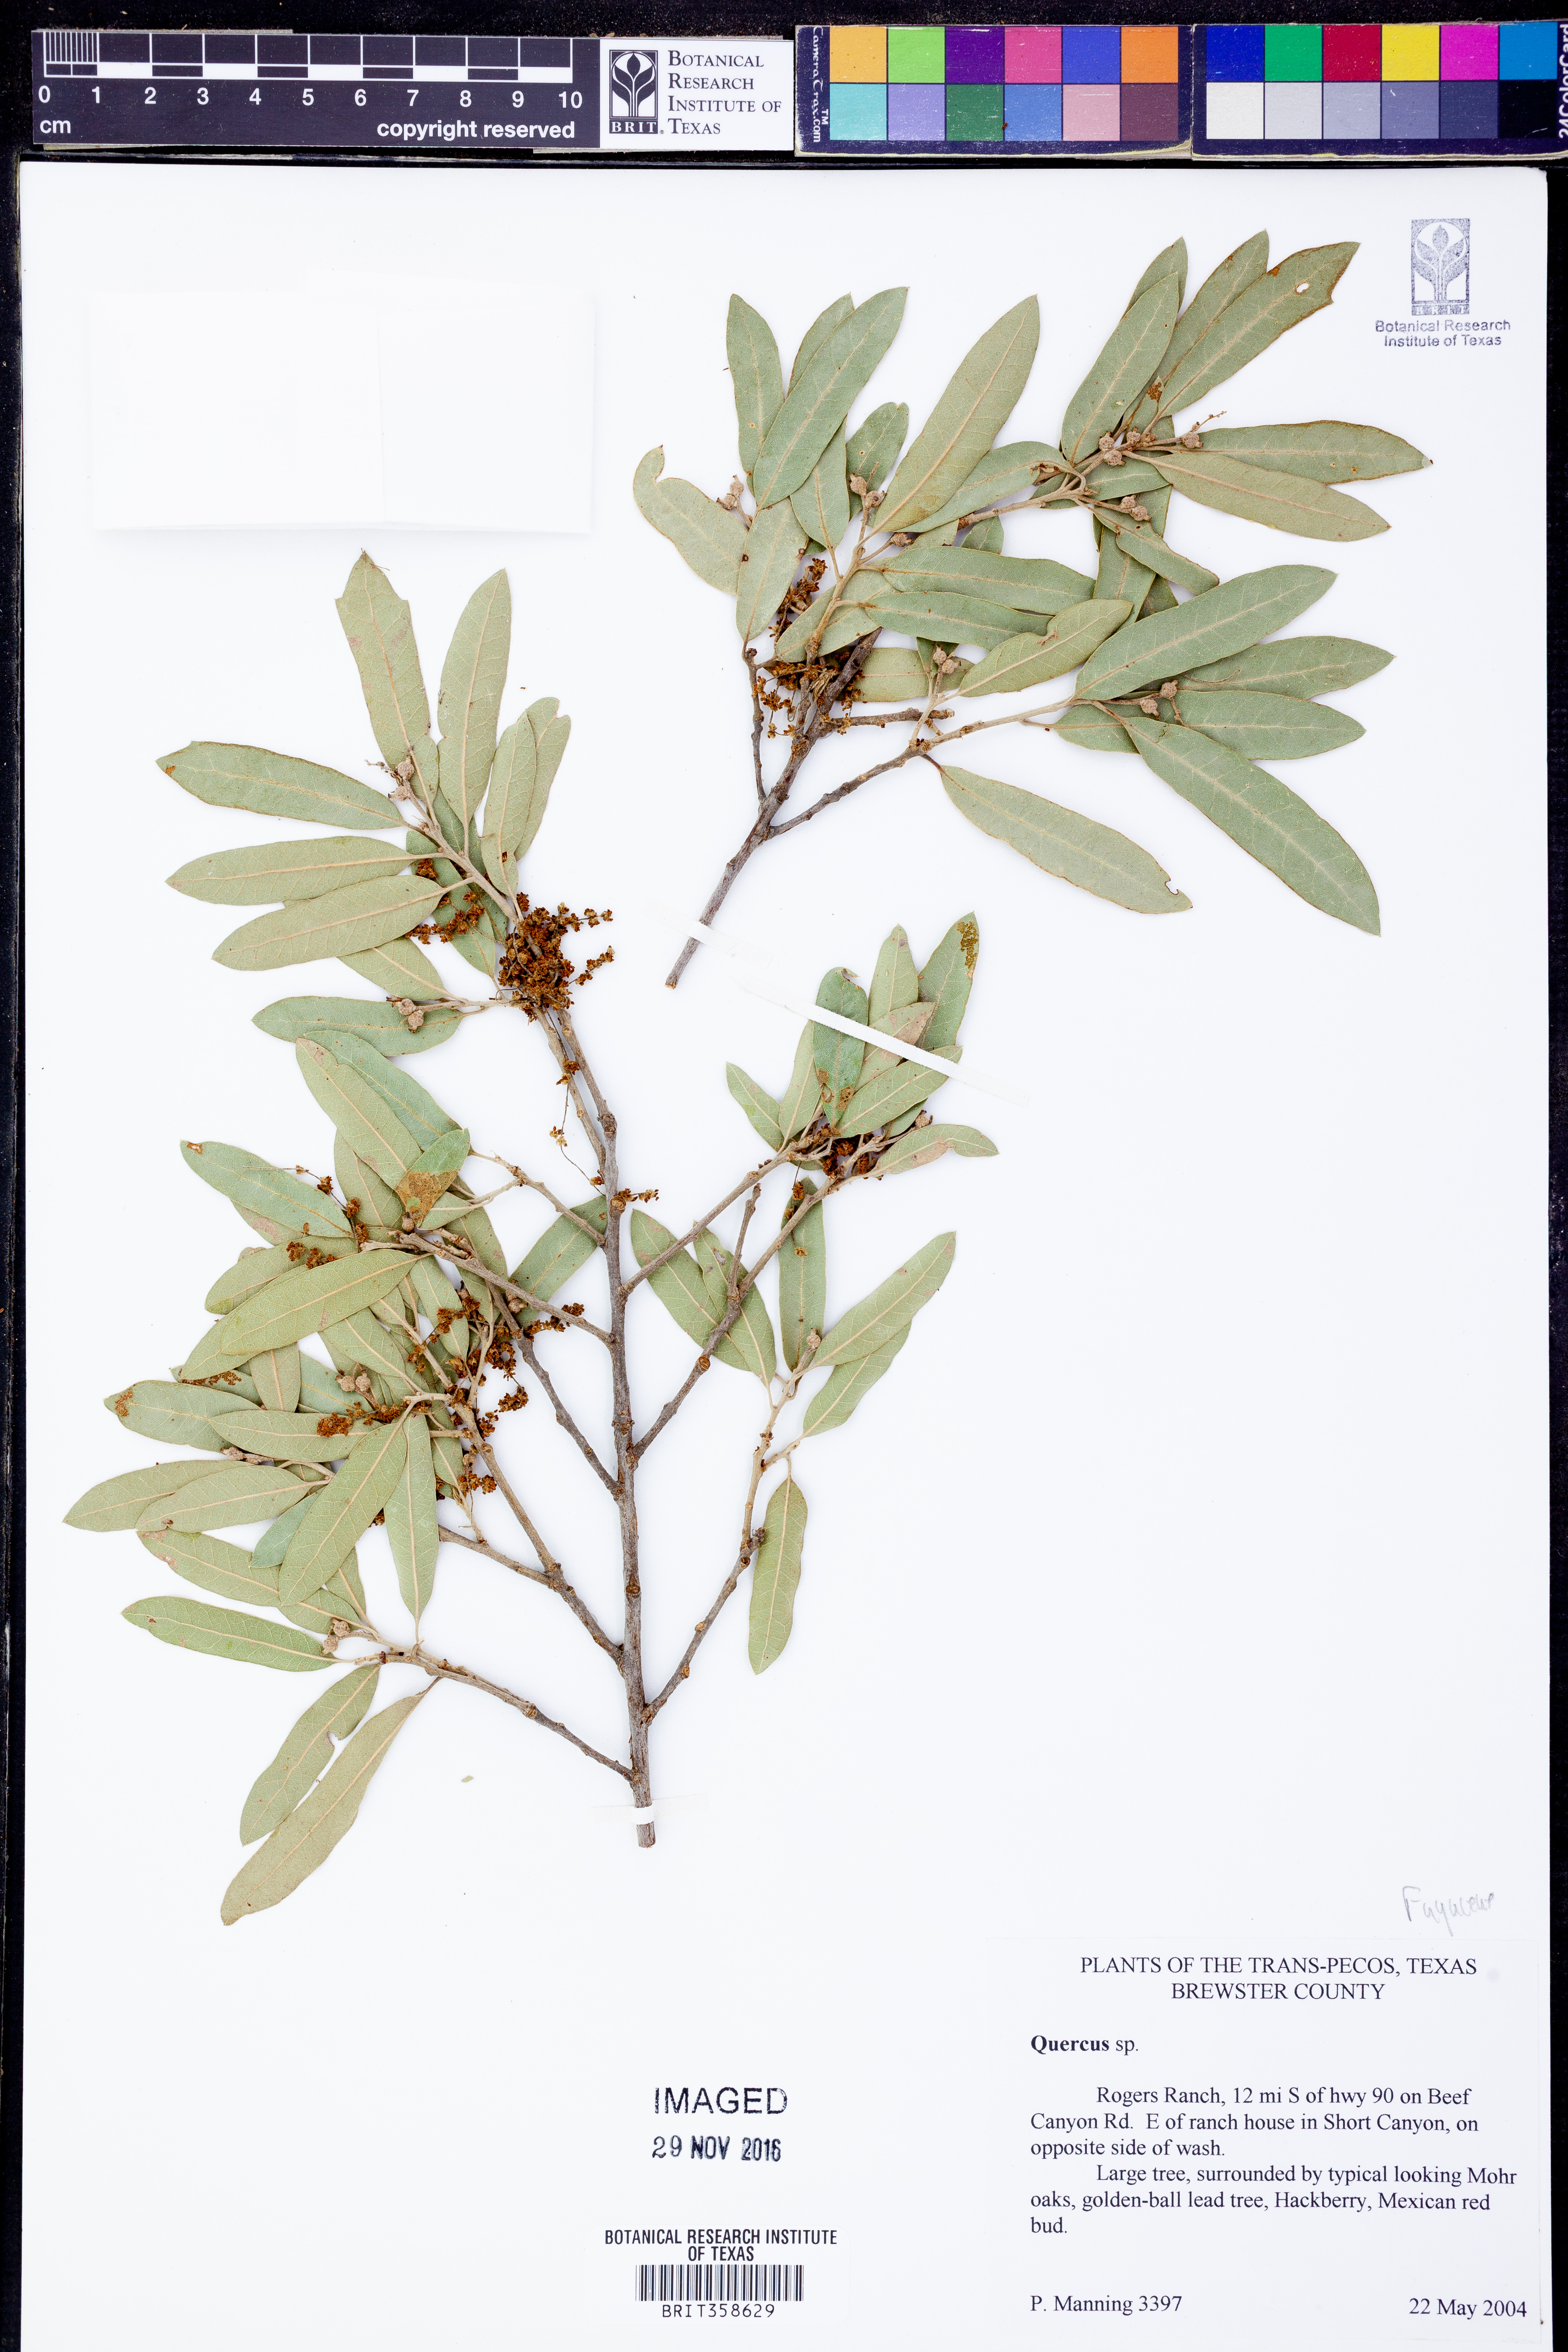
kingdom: Plantae
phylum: Tracheophyta
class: Magnoliopsida
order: Fagales
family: Fagaceae
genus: Quercus
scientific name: Quercus
